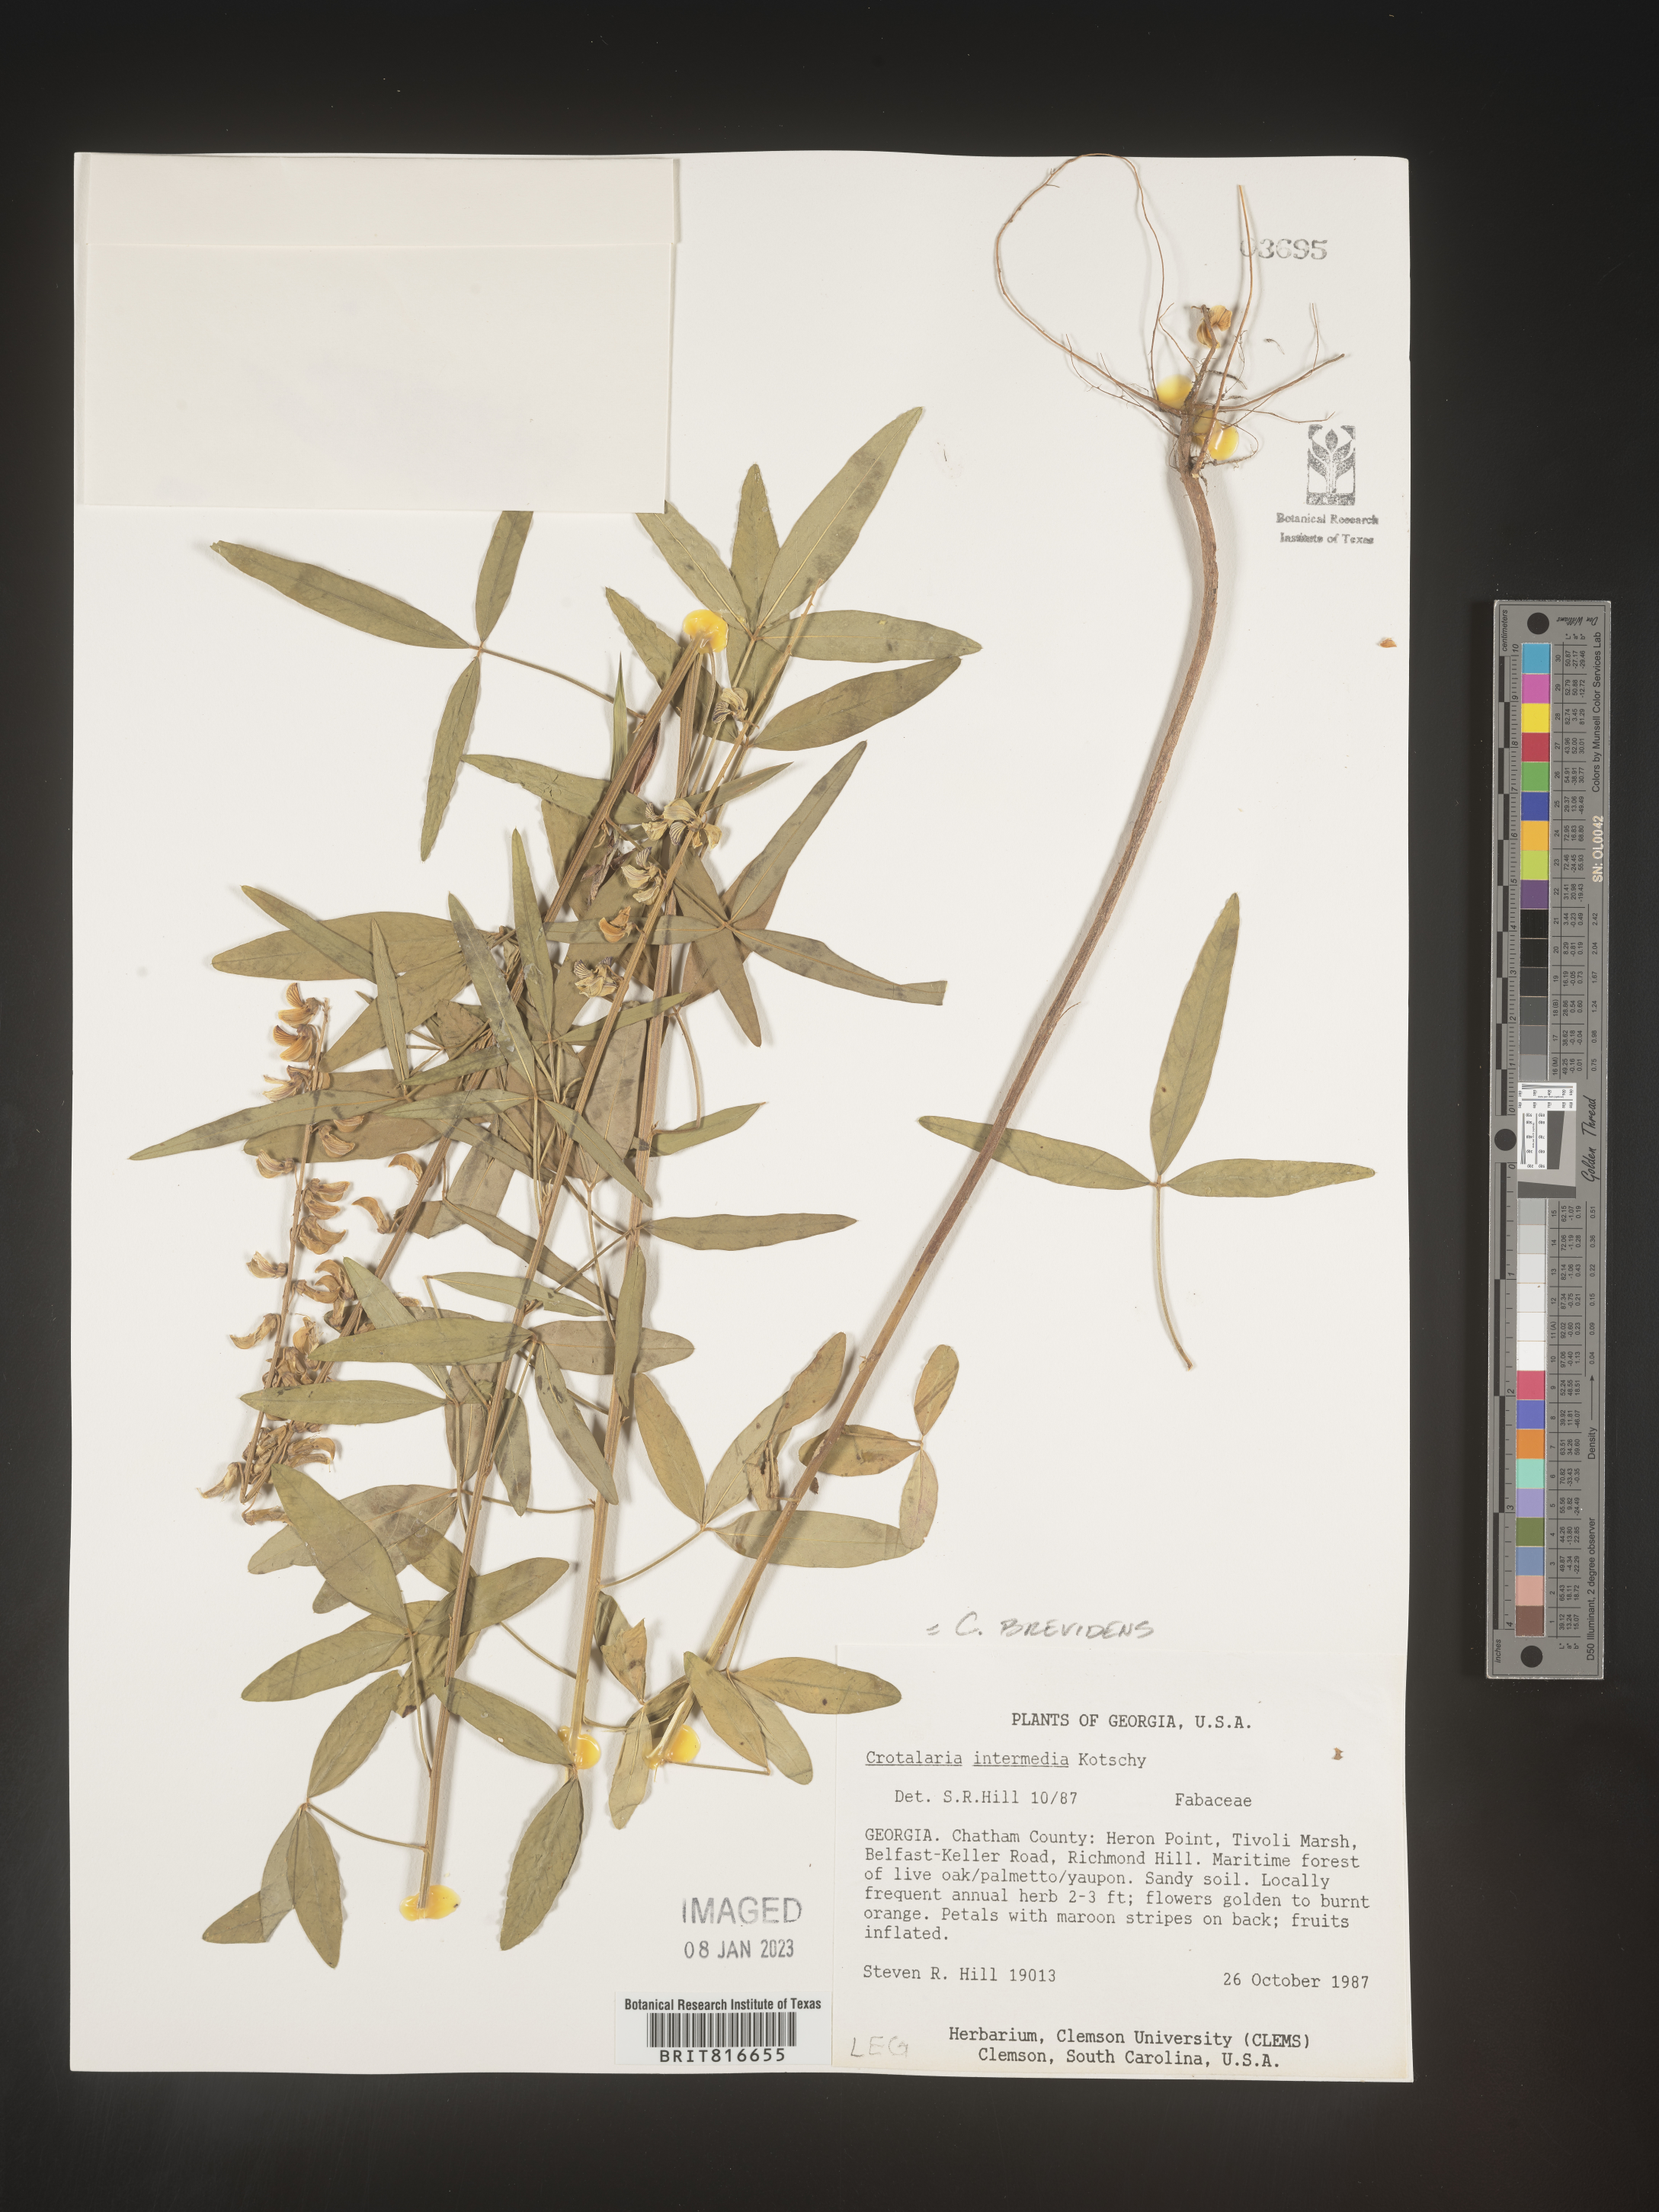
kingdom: Plantae
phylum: Tracheophyta
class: Magnoliopsida
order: Fabales
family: Fabaceae
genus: Crotalaria
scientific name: Crotalaria
